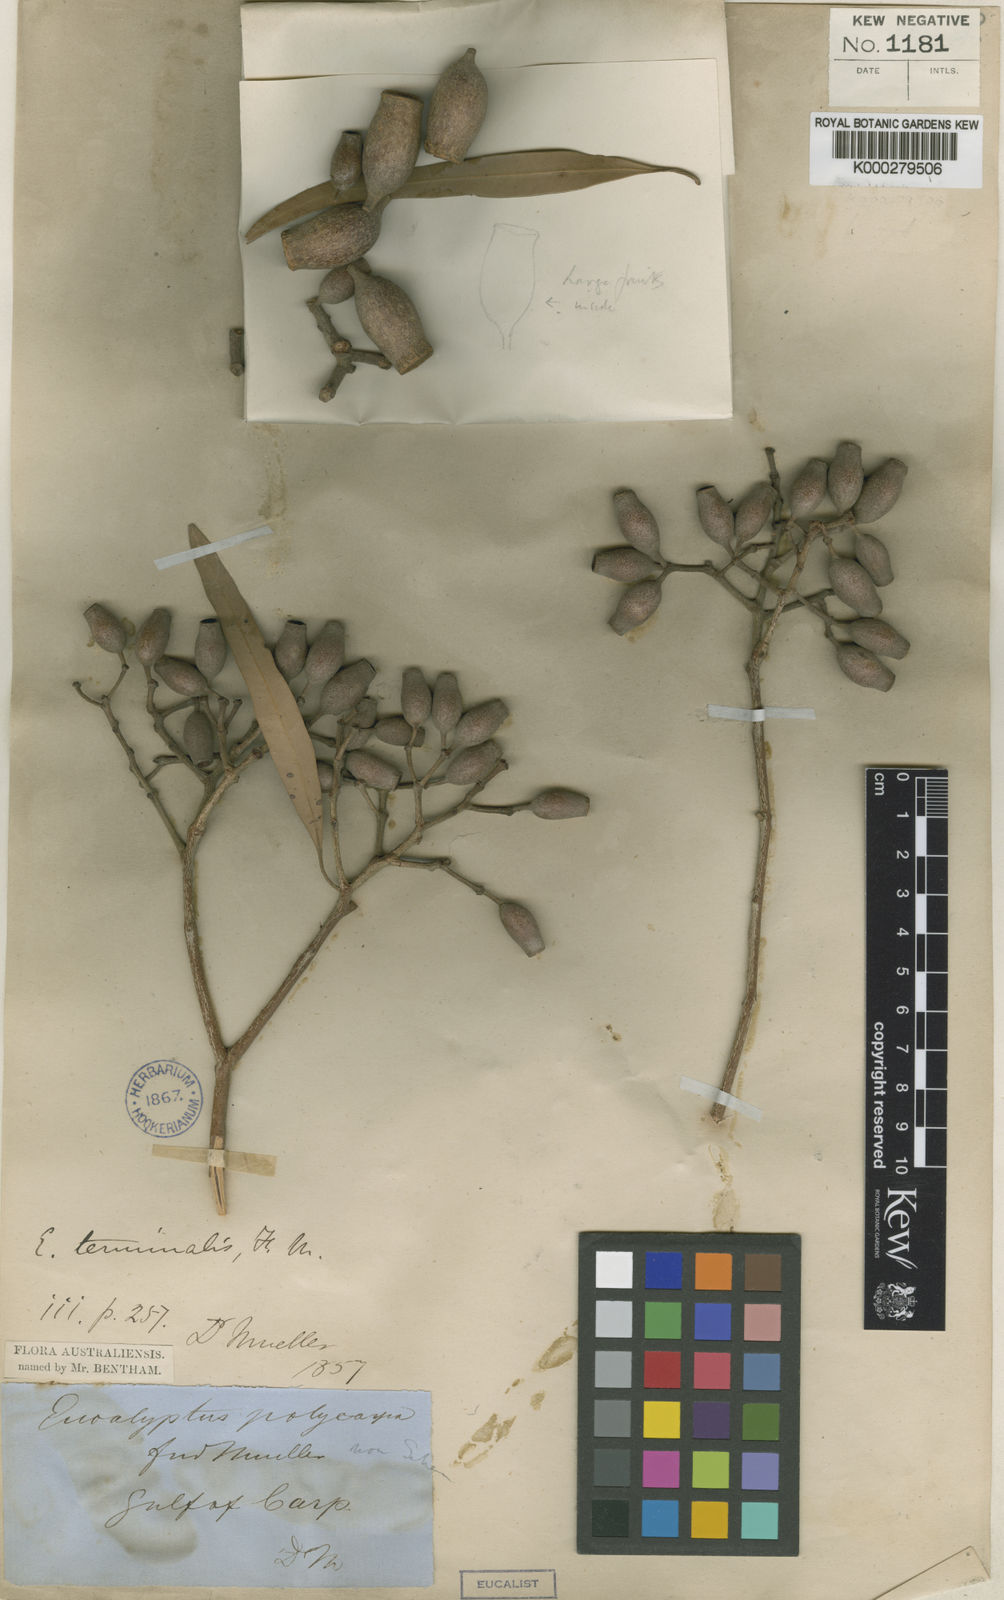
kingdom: Plantae
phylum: Tracheophyta
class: Magnoliopsida
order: Myrtales
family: Myrtaceae
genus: Corymbia
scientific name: Corymbia polycarpa
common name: Long-fruited-bloodwood
